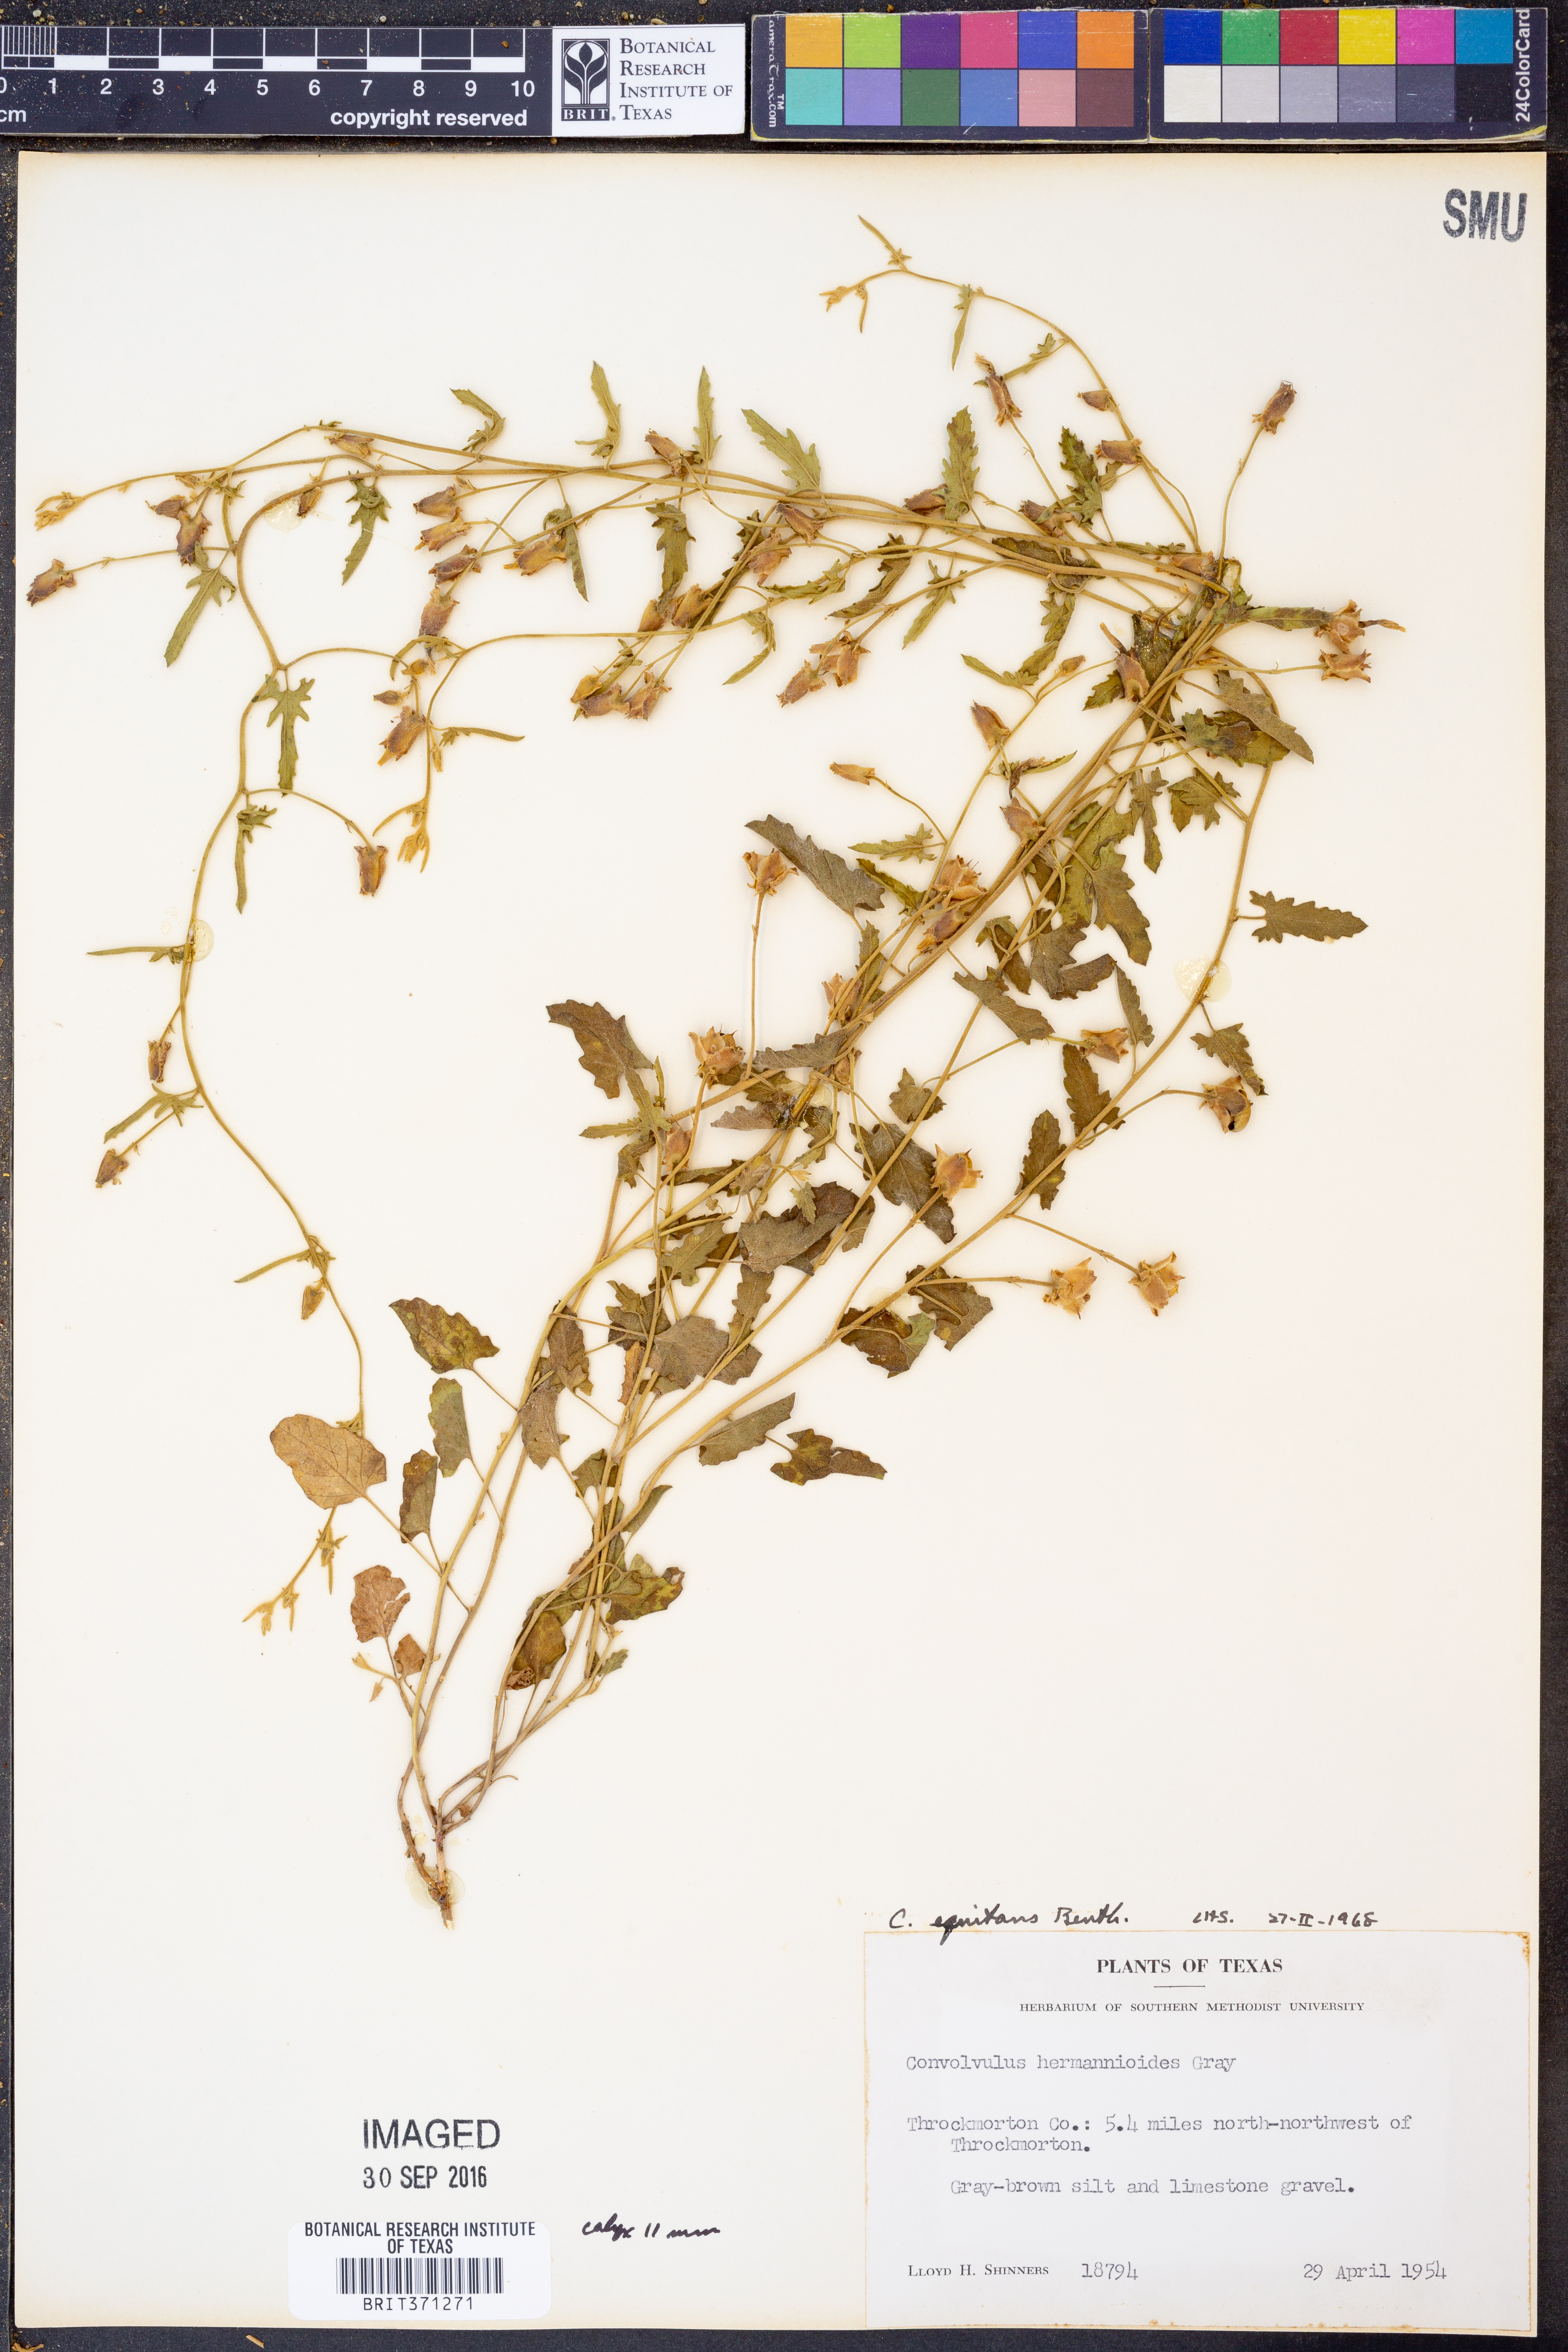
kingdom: Plantae
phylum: Tracheophyta
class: Magnoliopsida
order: Solanales
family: Convolvulaceae
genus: Convolvulus
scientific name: Convolvulus equitans
